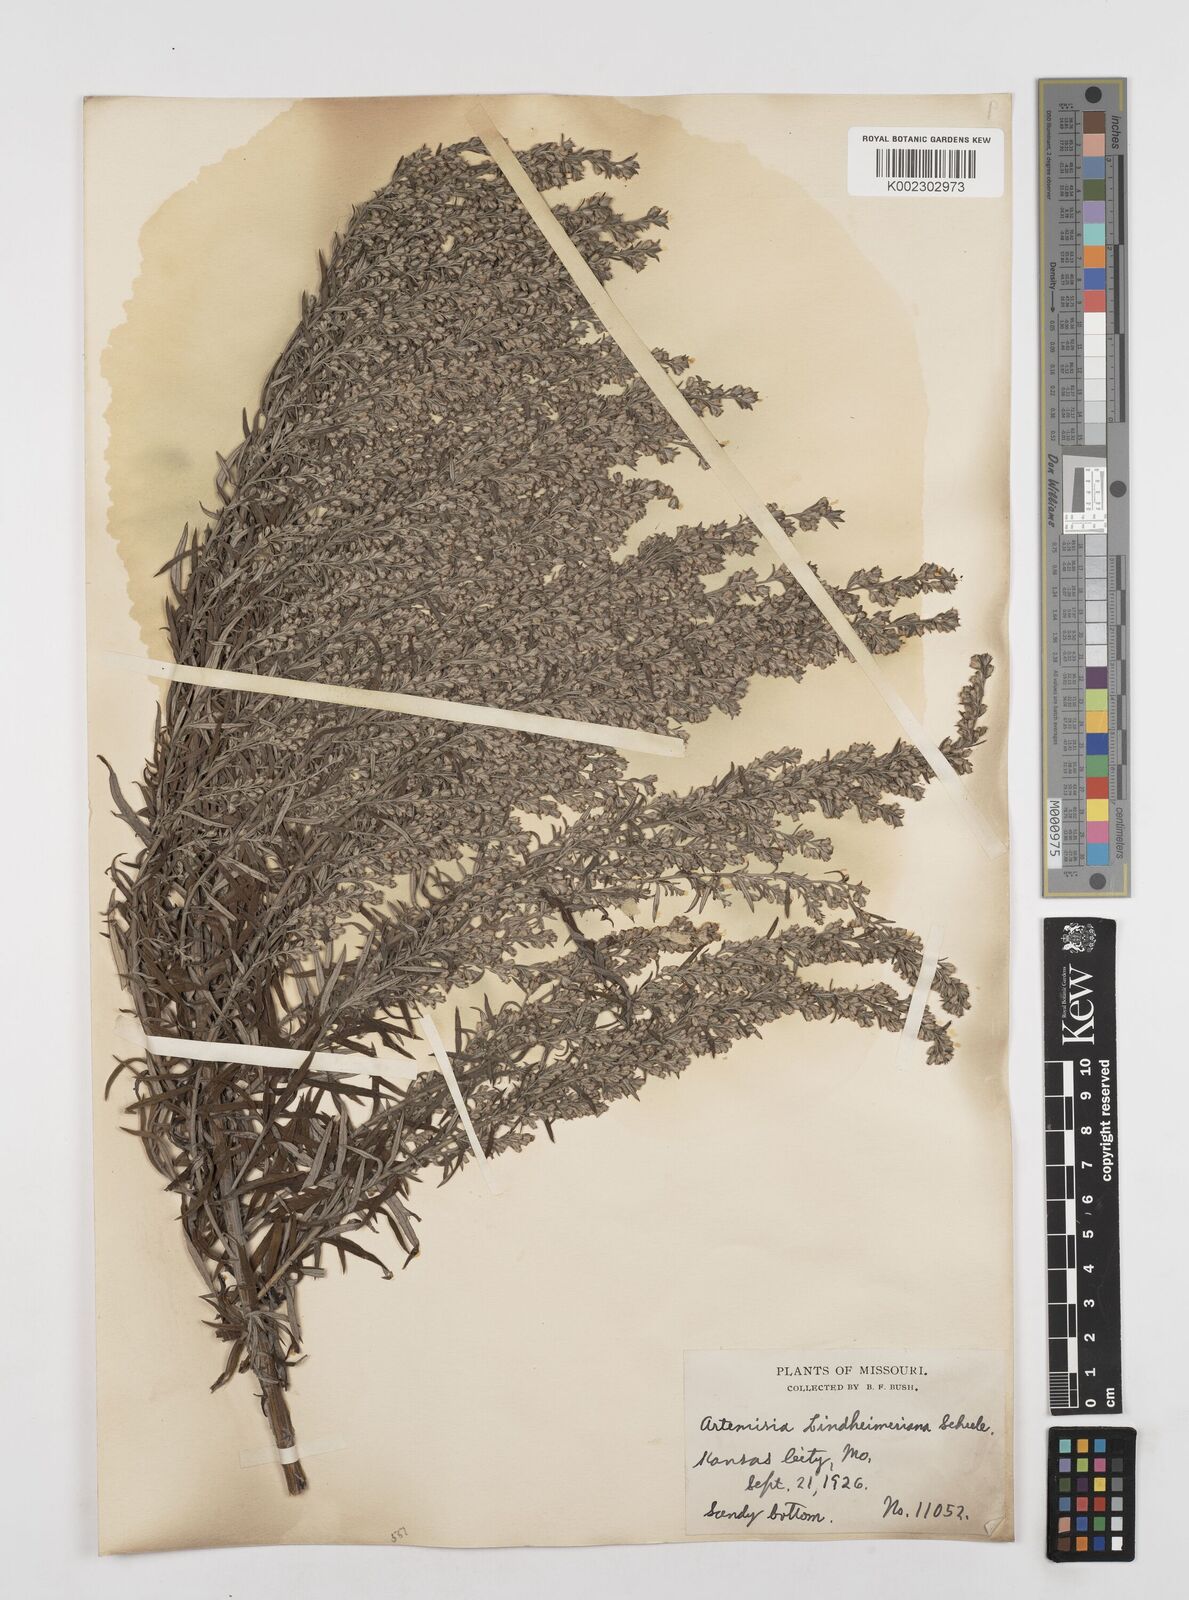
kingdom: Plantae
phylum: Tracheophyta
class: Magnoliopsida
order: Asterales
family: Asteraceae
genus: Artemisia
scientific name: Artemisia ludoviciana
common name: Western mugwort
